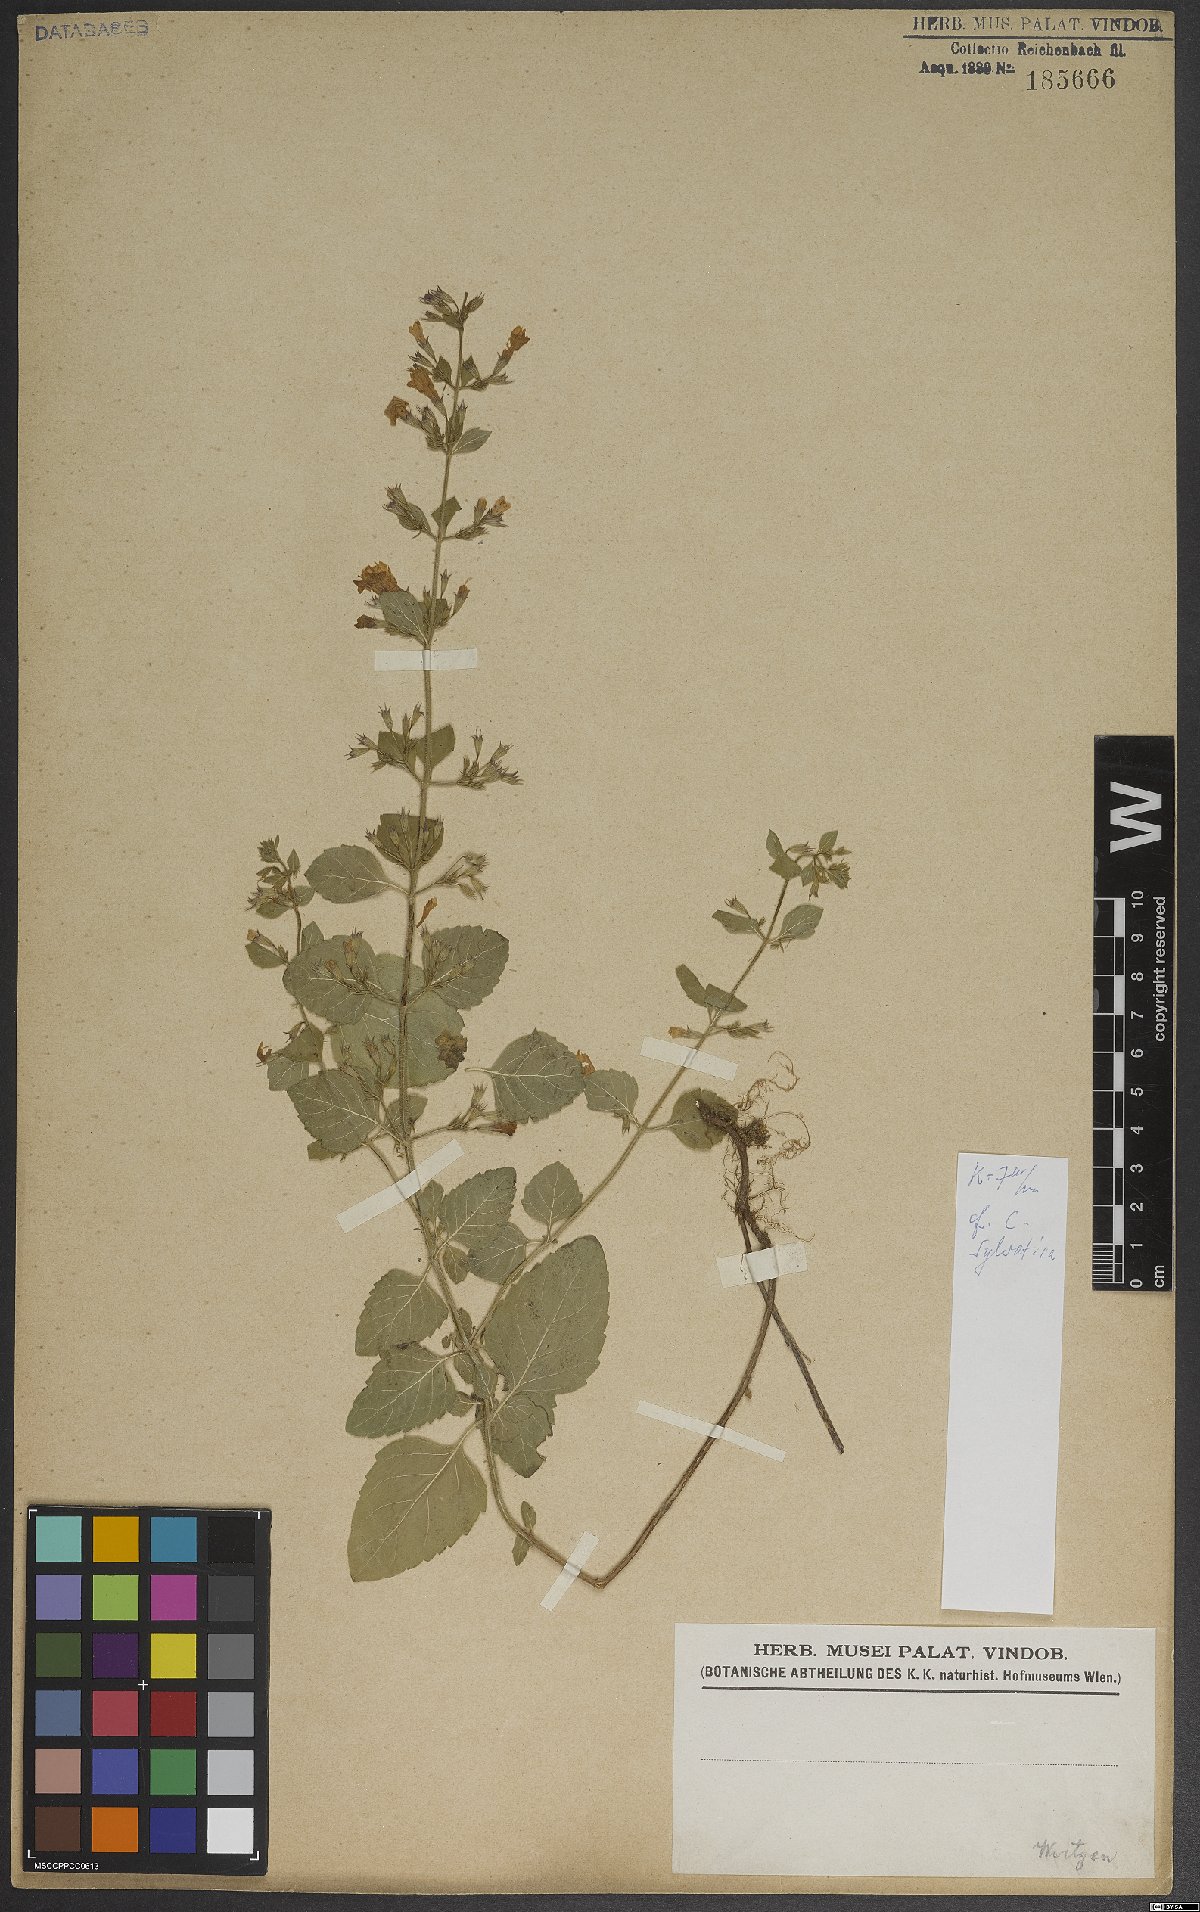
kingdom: Plantae
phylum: Tracheophyta
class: Magnoliopsida
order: Lamiales
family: Lamiaceae
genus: Clinopodium
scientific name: Clinopodium menthifolium
